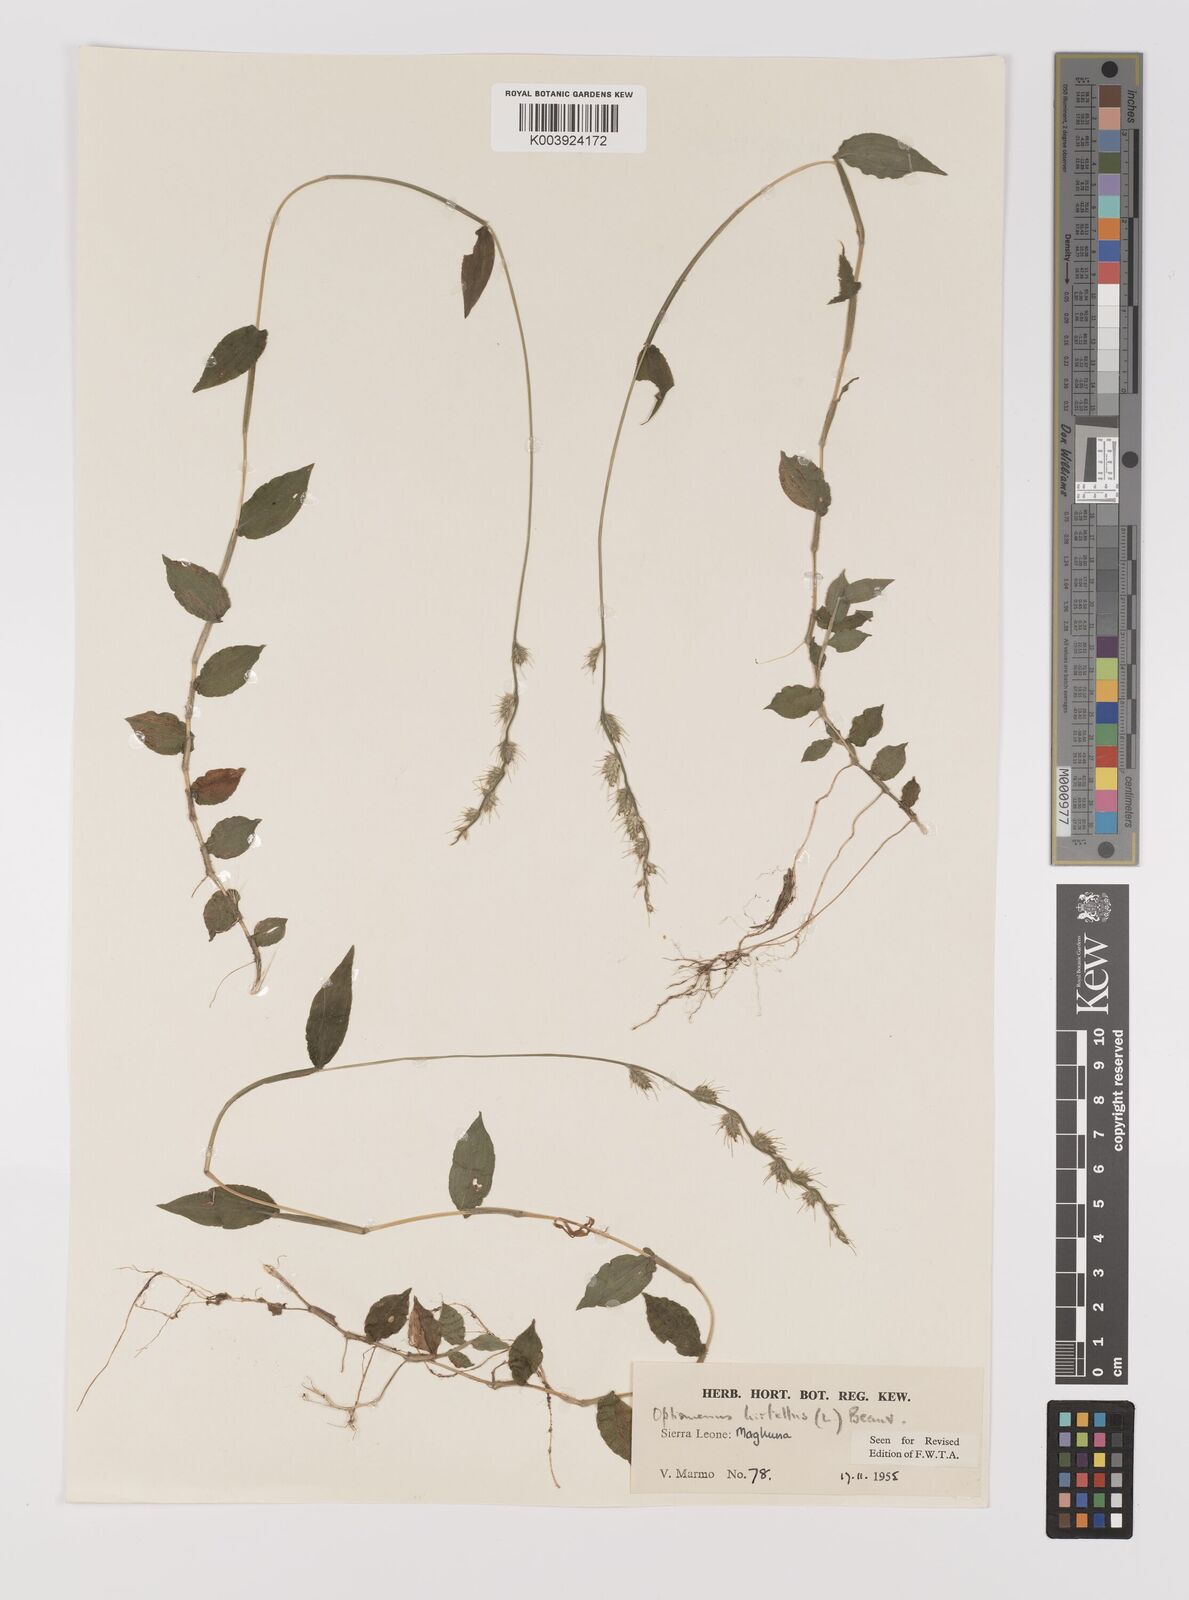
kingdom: Plantae
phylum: Tracheophyta
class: Liliopsida
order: Poales
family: Poaceae
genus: Oplismenus
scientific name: Oplismenus hirtellus
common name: Basketgrass
